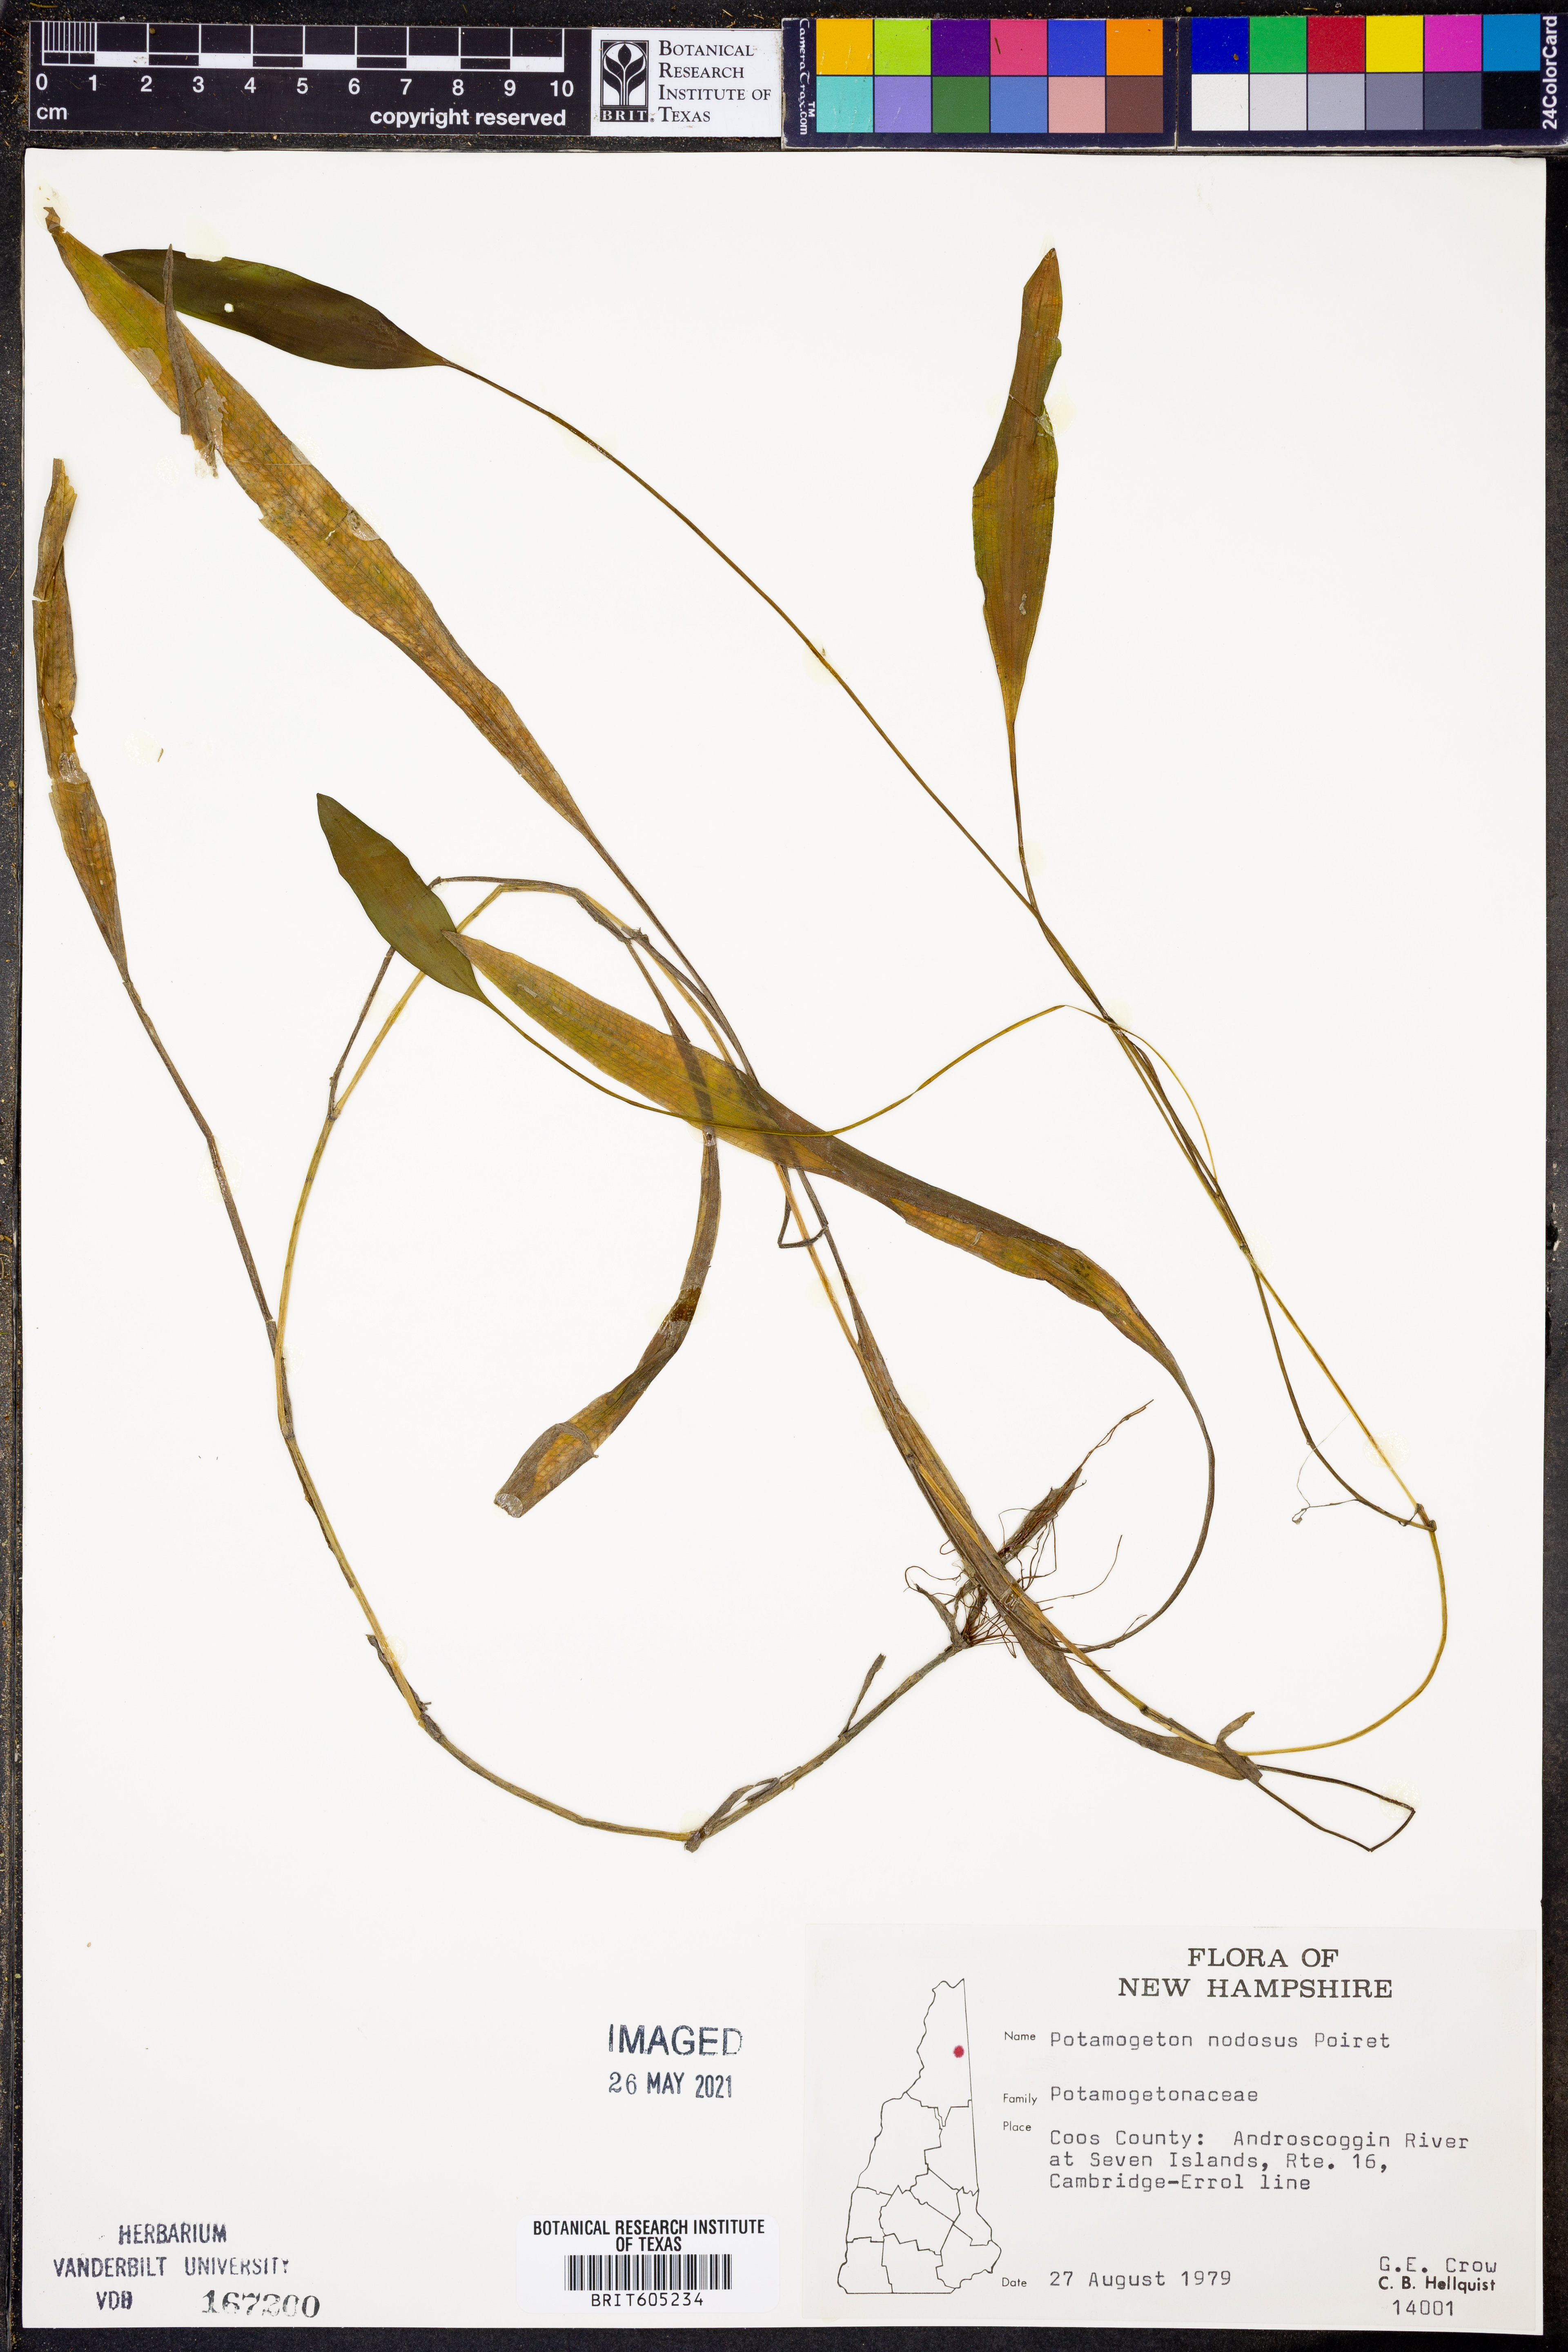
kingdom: Plantae
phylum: Tracheophyta
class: Liliopsida
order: Alismatales
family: Potamogetonaceae
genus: Potamogeton
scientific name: Potamogeton nodosus
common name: Loddon pondweed
